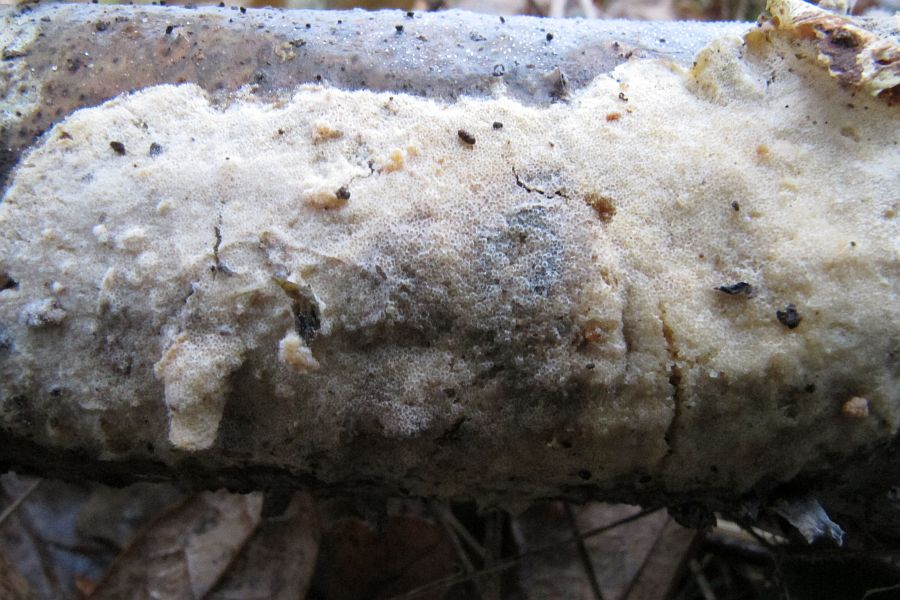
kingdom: Fungi
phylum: Ascomycota
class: Sordariomycetes
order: Hypocreales
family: Hypocreaceae
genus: Trichoderma
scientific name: Trichoderma citrinum
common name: udbredt kødkerne
